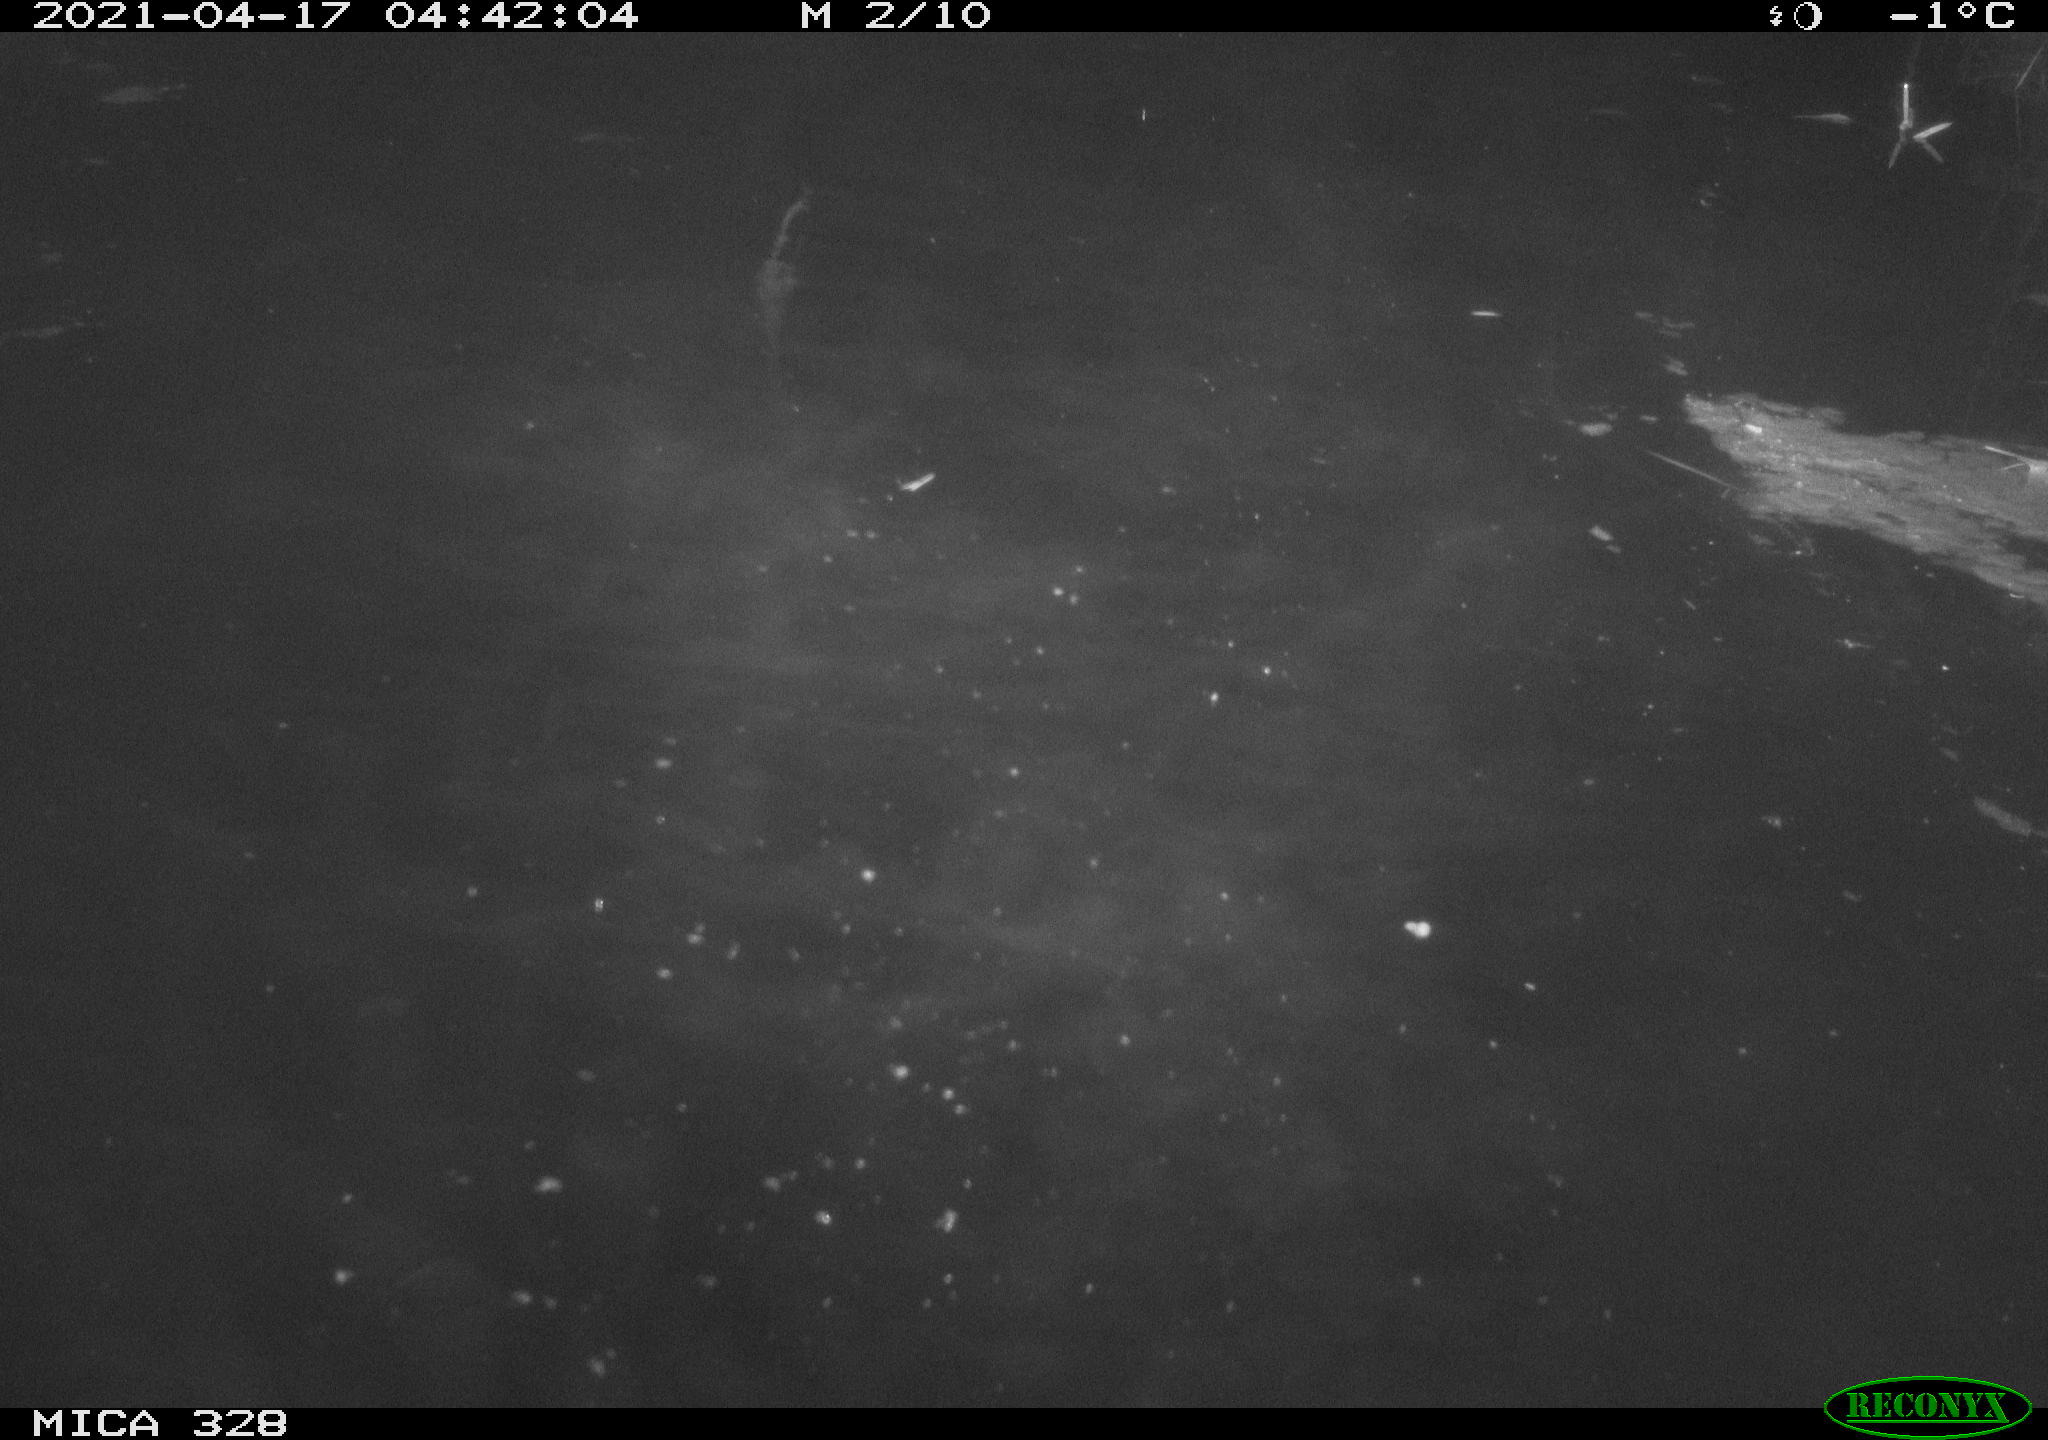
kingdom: Animalia
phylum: Chordata
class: Mammalia
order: Rodentia
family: Cricetidae
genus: Ondatra
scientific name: Ondatra zibethicus
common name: Muskrat
